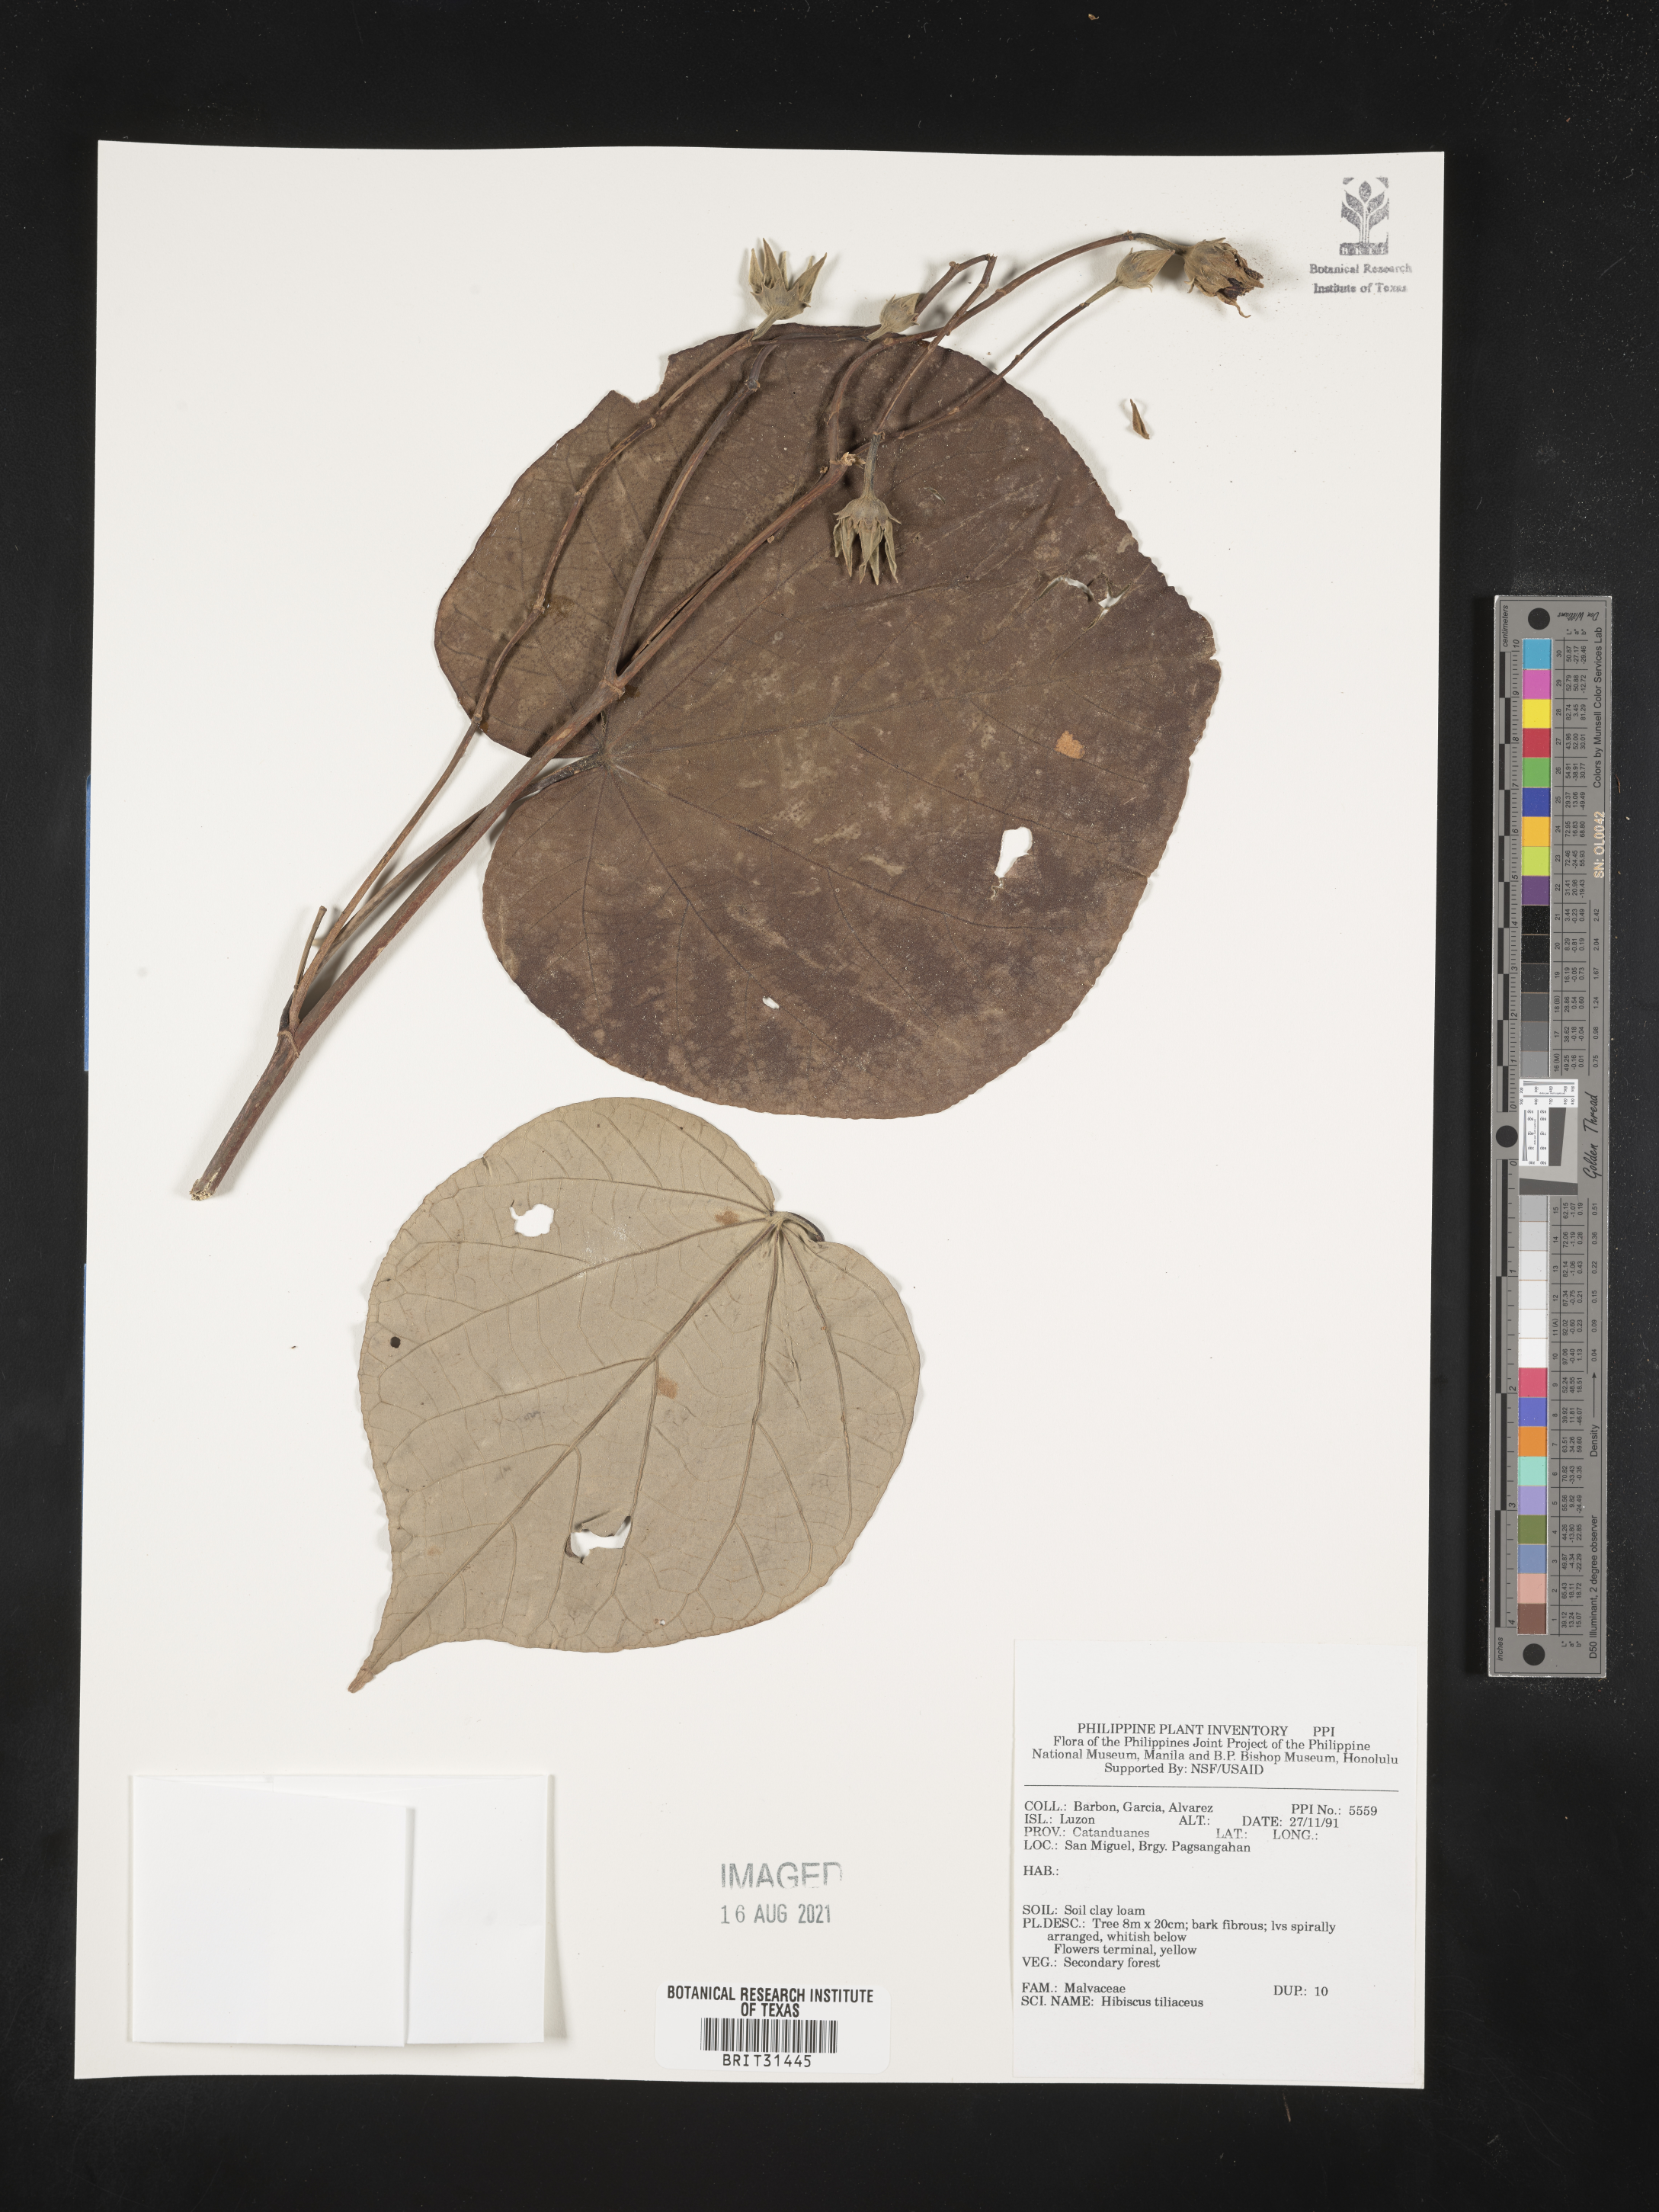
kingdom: Plantae
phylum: Tracheophyta
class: Magnoliopsida
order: Malvales
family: Malvaceae
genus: Talipariti
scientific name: Talipariti tiliaceum
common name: Sea hibiscus
